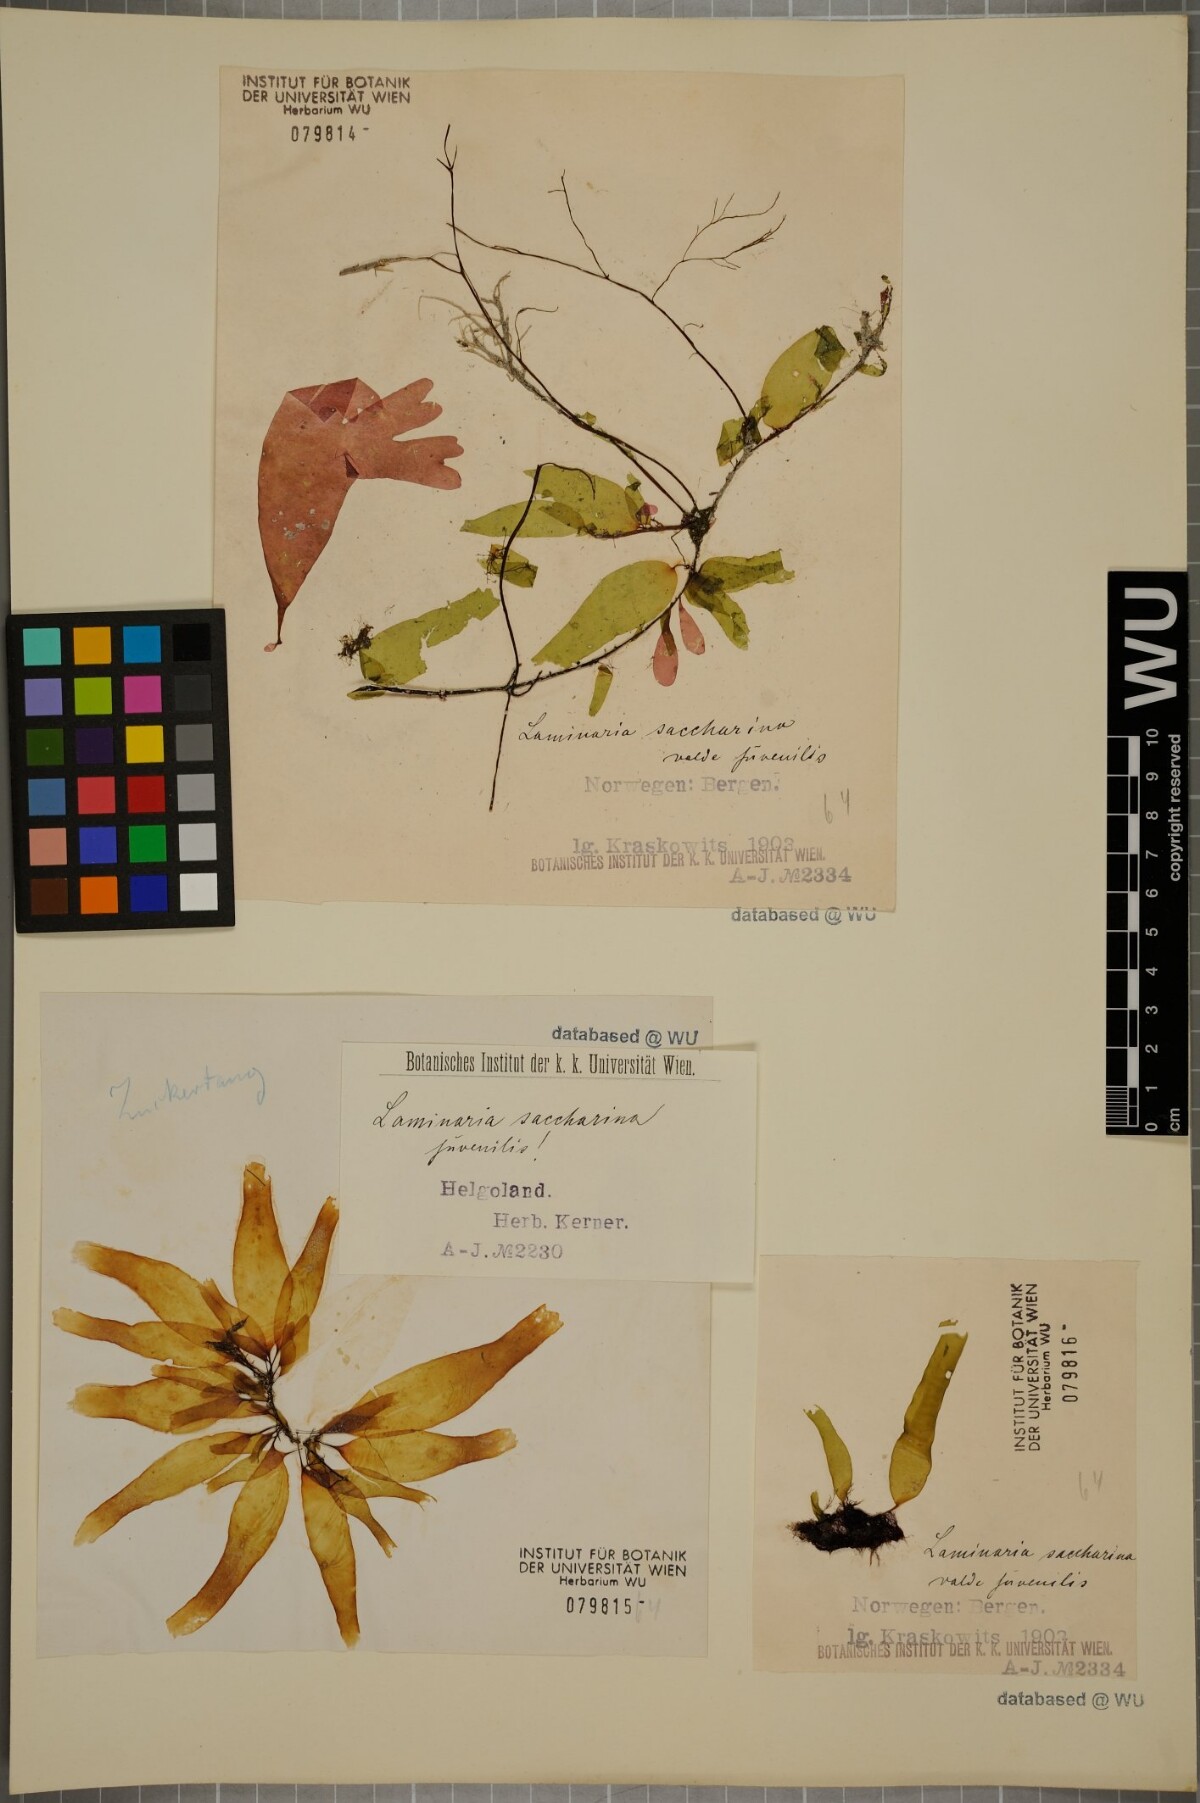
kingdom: Chromista
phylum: Ochrophyta
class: Phaeophyceae
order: Laminariales
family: Laminariaceae
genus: Saccharina
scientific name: Saccharina latissima
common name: Poor man's weather glass
